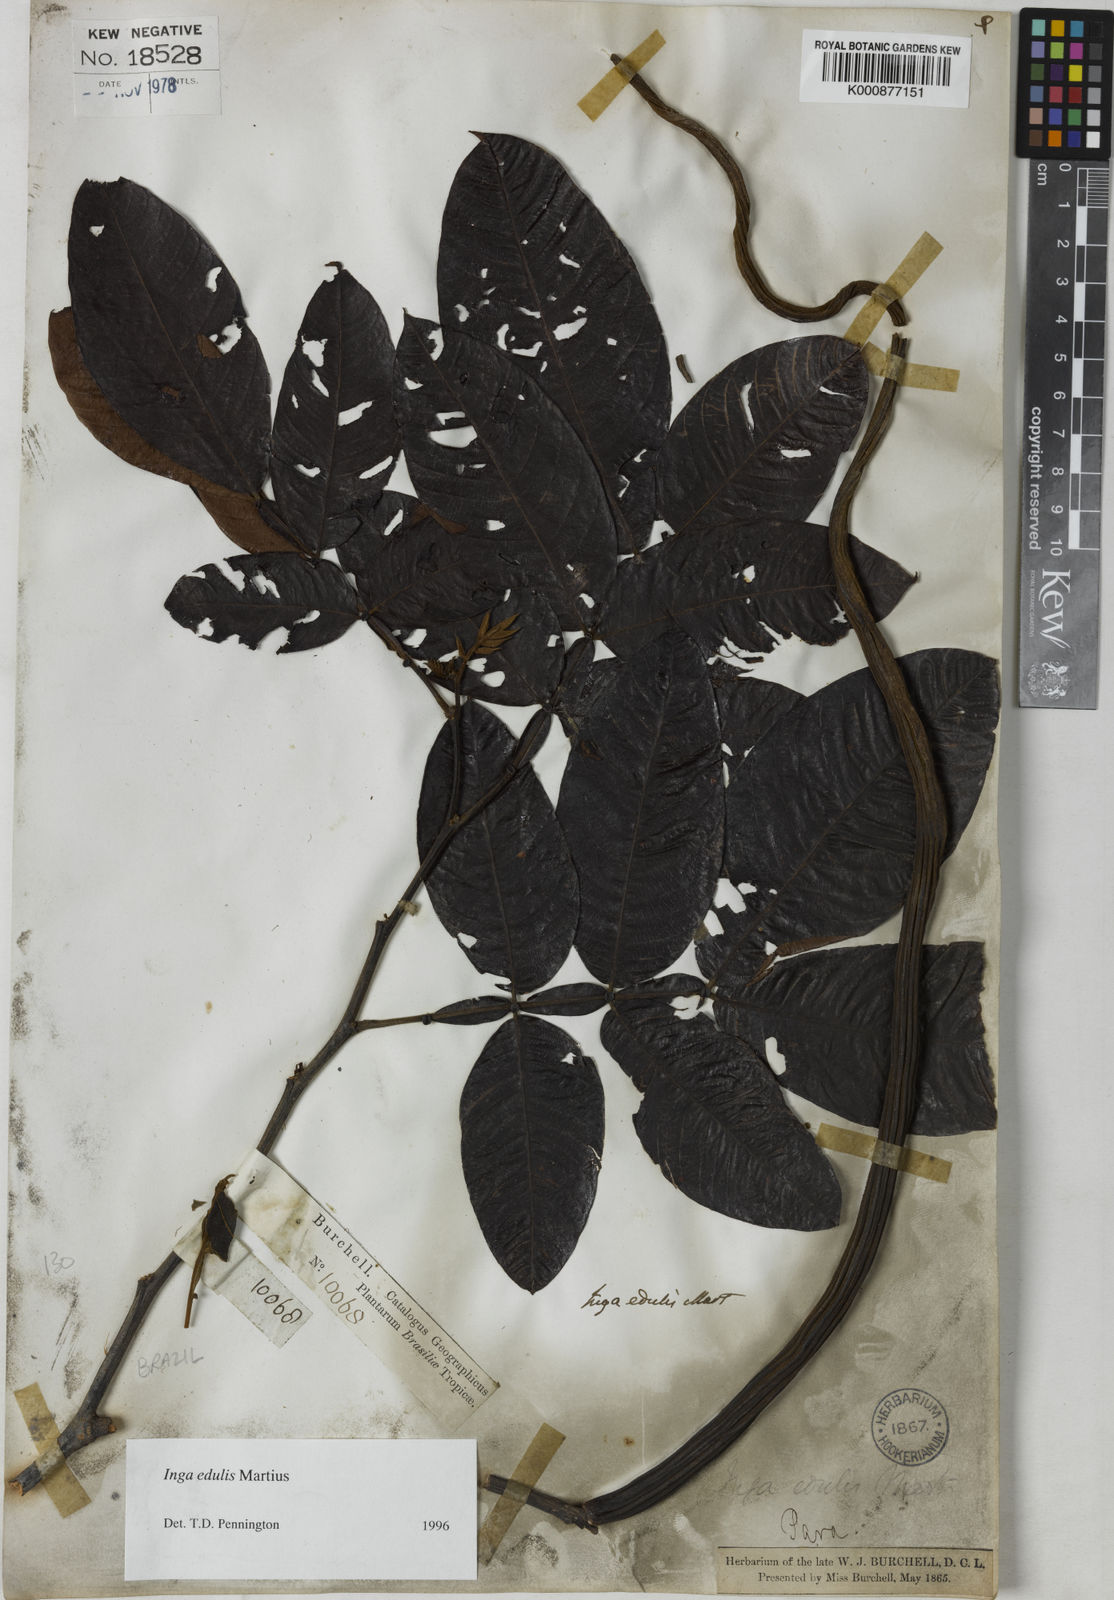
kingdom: Plantae
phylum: Tracheophyta
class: Magnoliopsida
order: Fabales
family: Fabaceae
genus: Inga
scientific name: Inga edulis
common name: Ice cream bean
